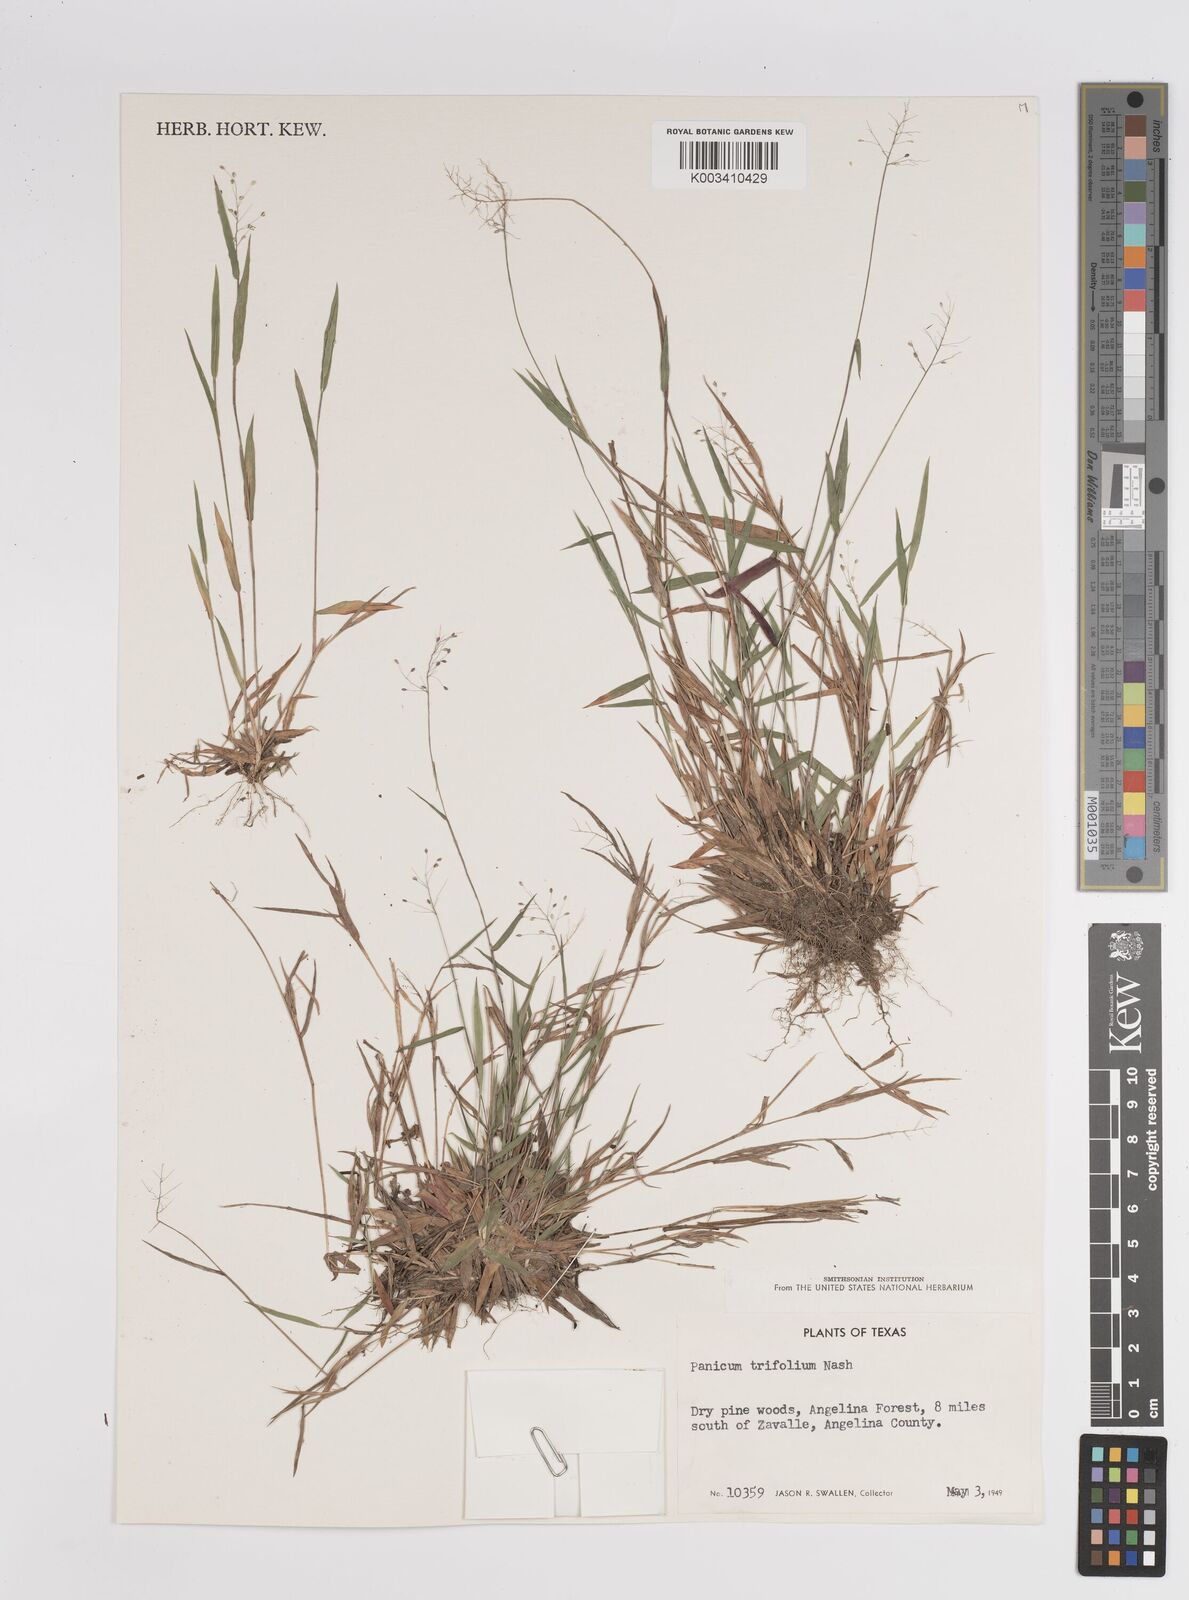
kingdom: Plantae
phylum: Tracheophyta
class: Liliopsida
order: Poales
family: Poaceae
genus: Dichanthelium
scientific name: Dichanthelium trifolium
